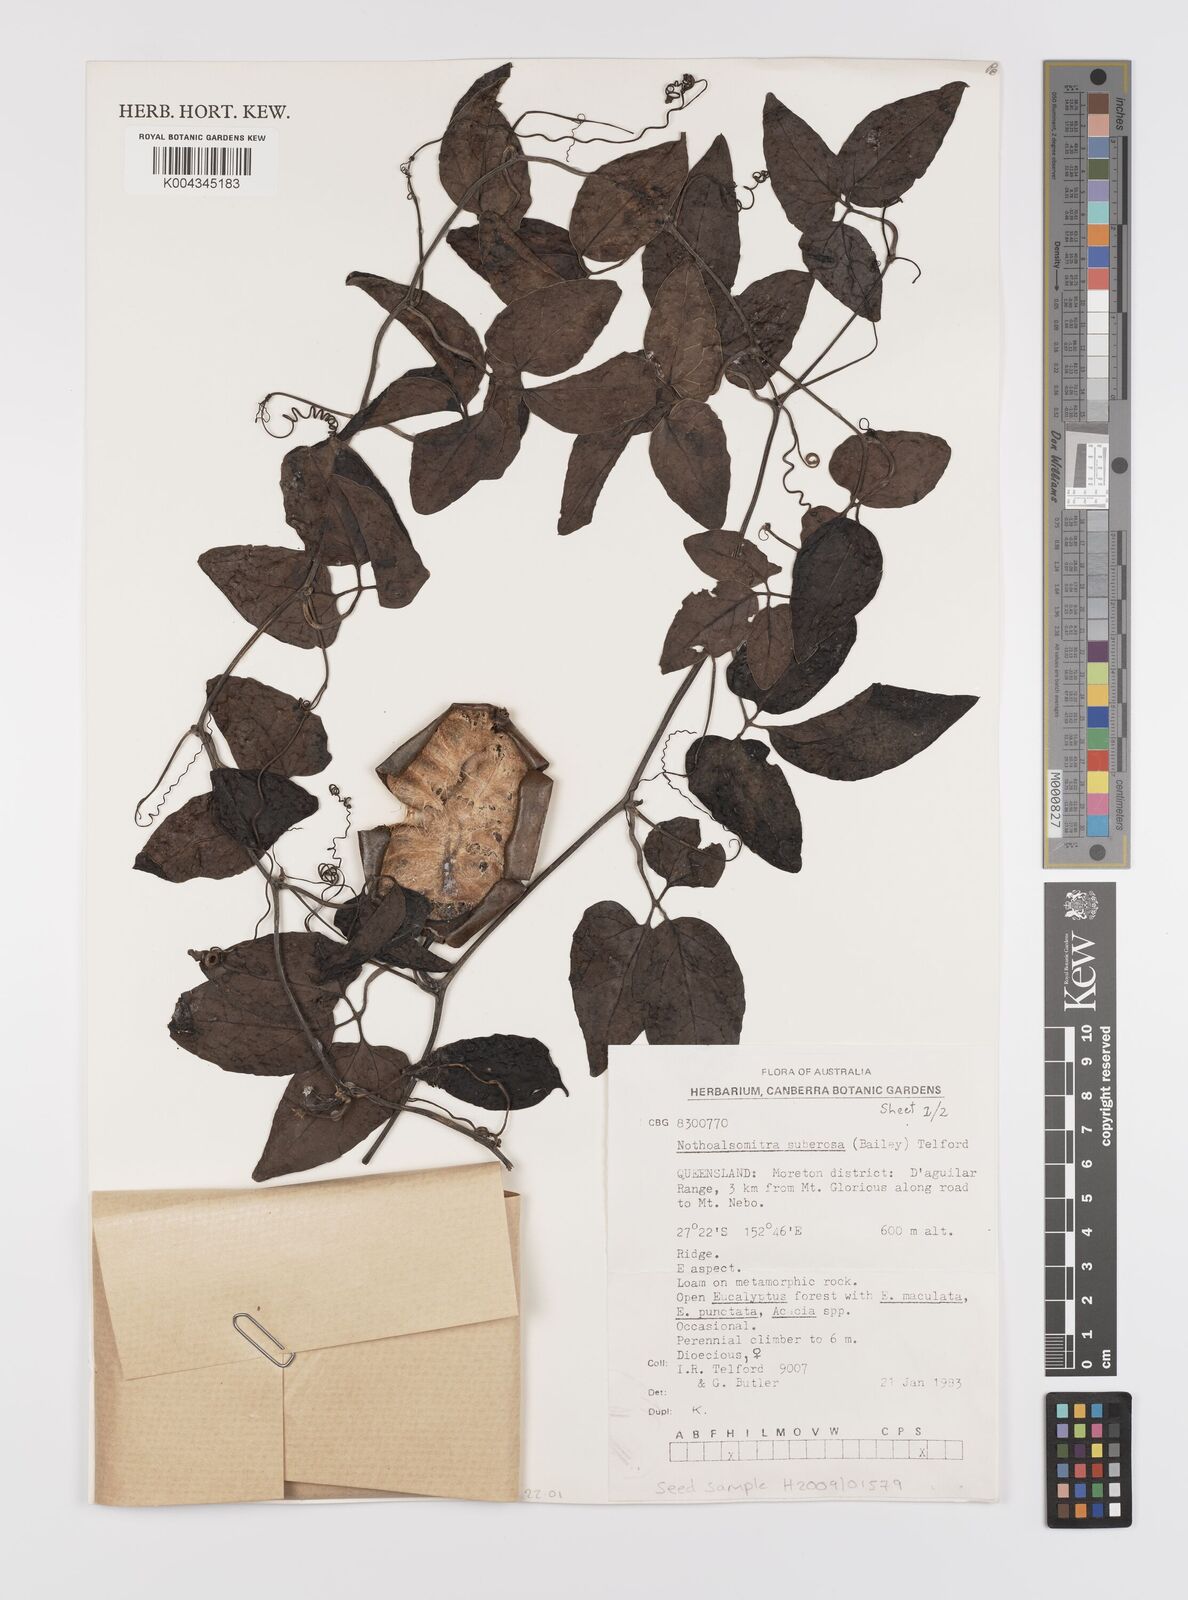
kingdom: Plantae
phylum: Tracheophyta
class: Magnoliopsida
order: Cucurbitales
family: Cucurbitaceae
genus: Nothoalsomitra
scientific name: Nothoalsomitra suberosa
